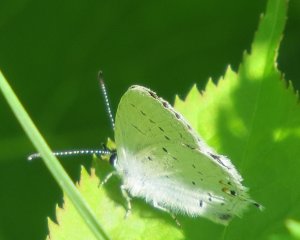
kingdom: Animalia
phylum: Arthropoda
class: Insecta
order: Lepidoptera
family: Lycaenidae
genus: Elkalyce
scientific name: Elkalyce amyntula
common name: Western Tailed-Blue
